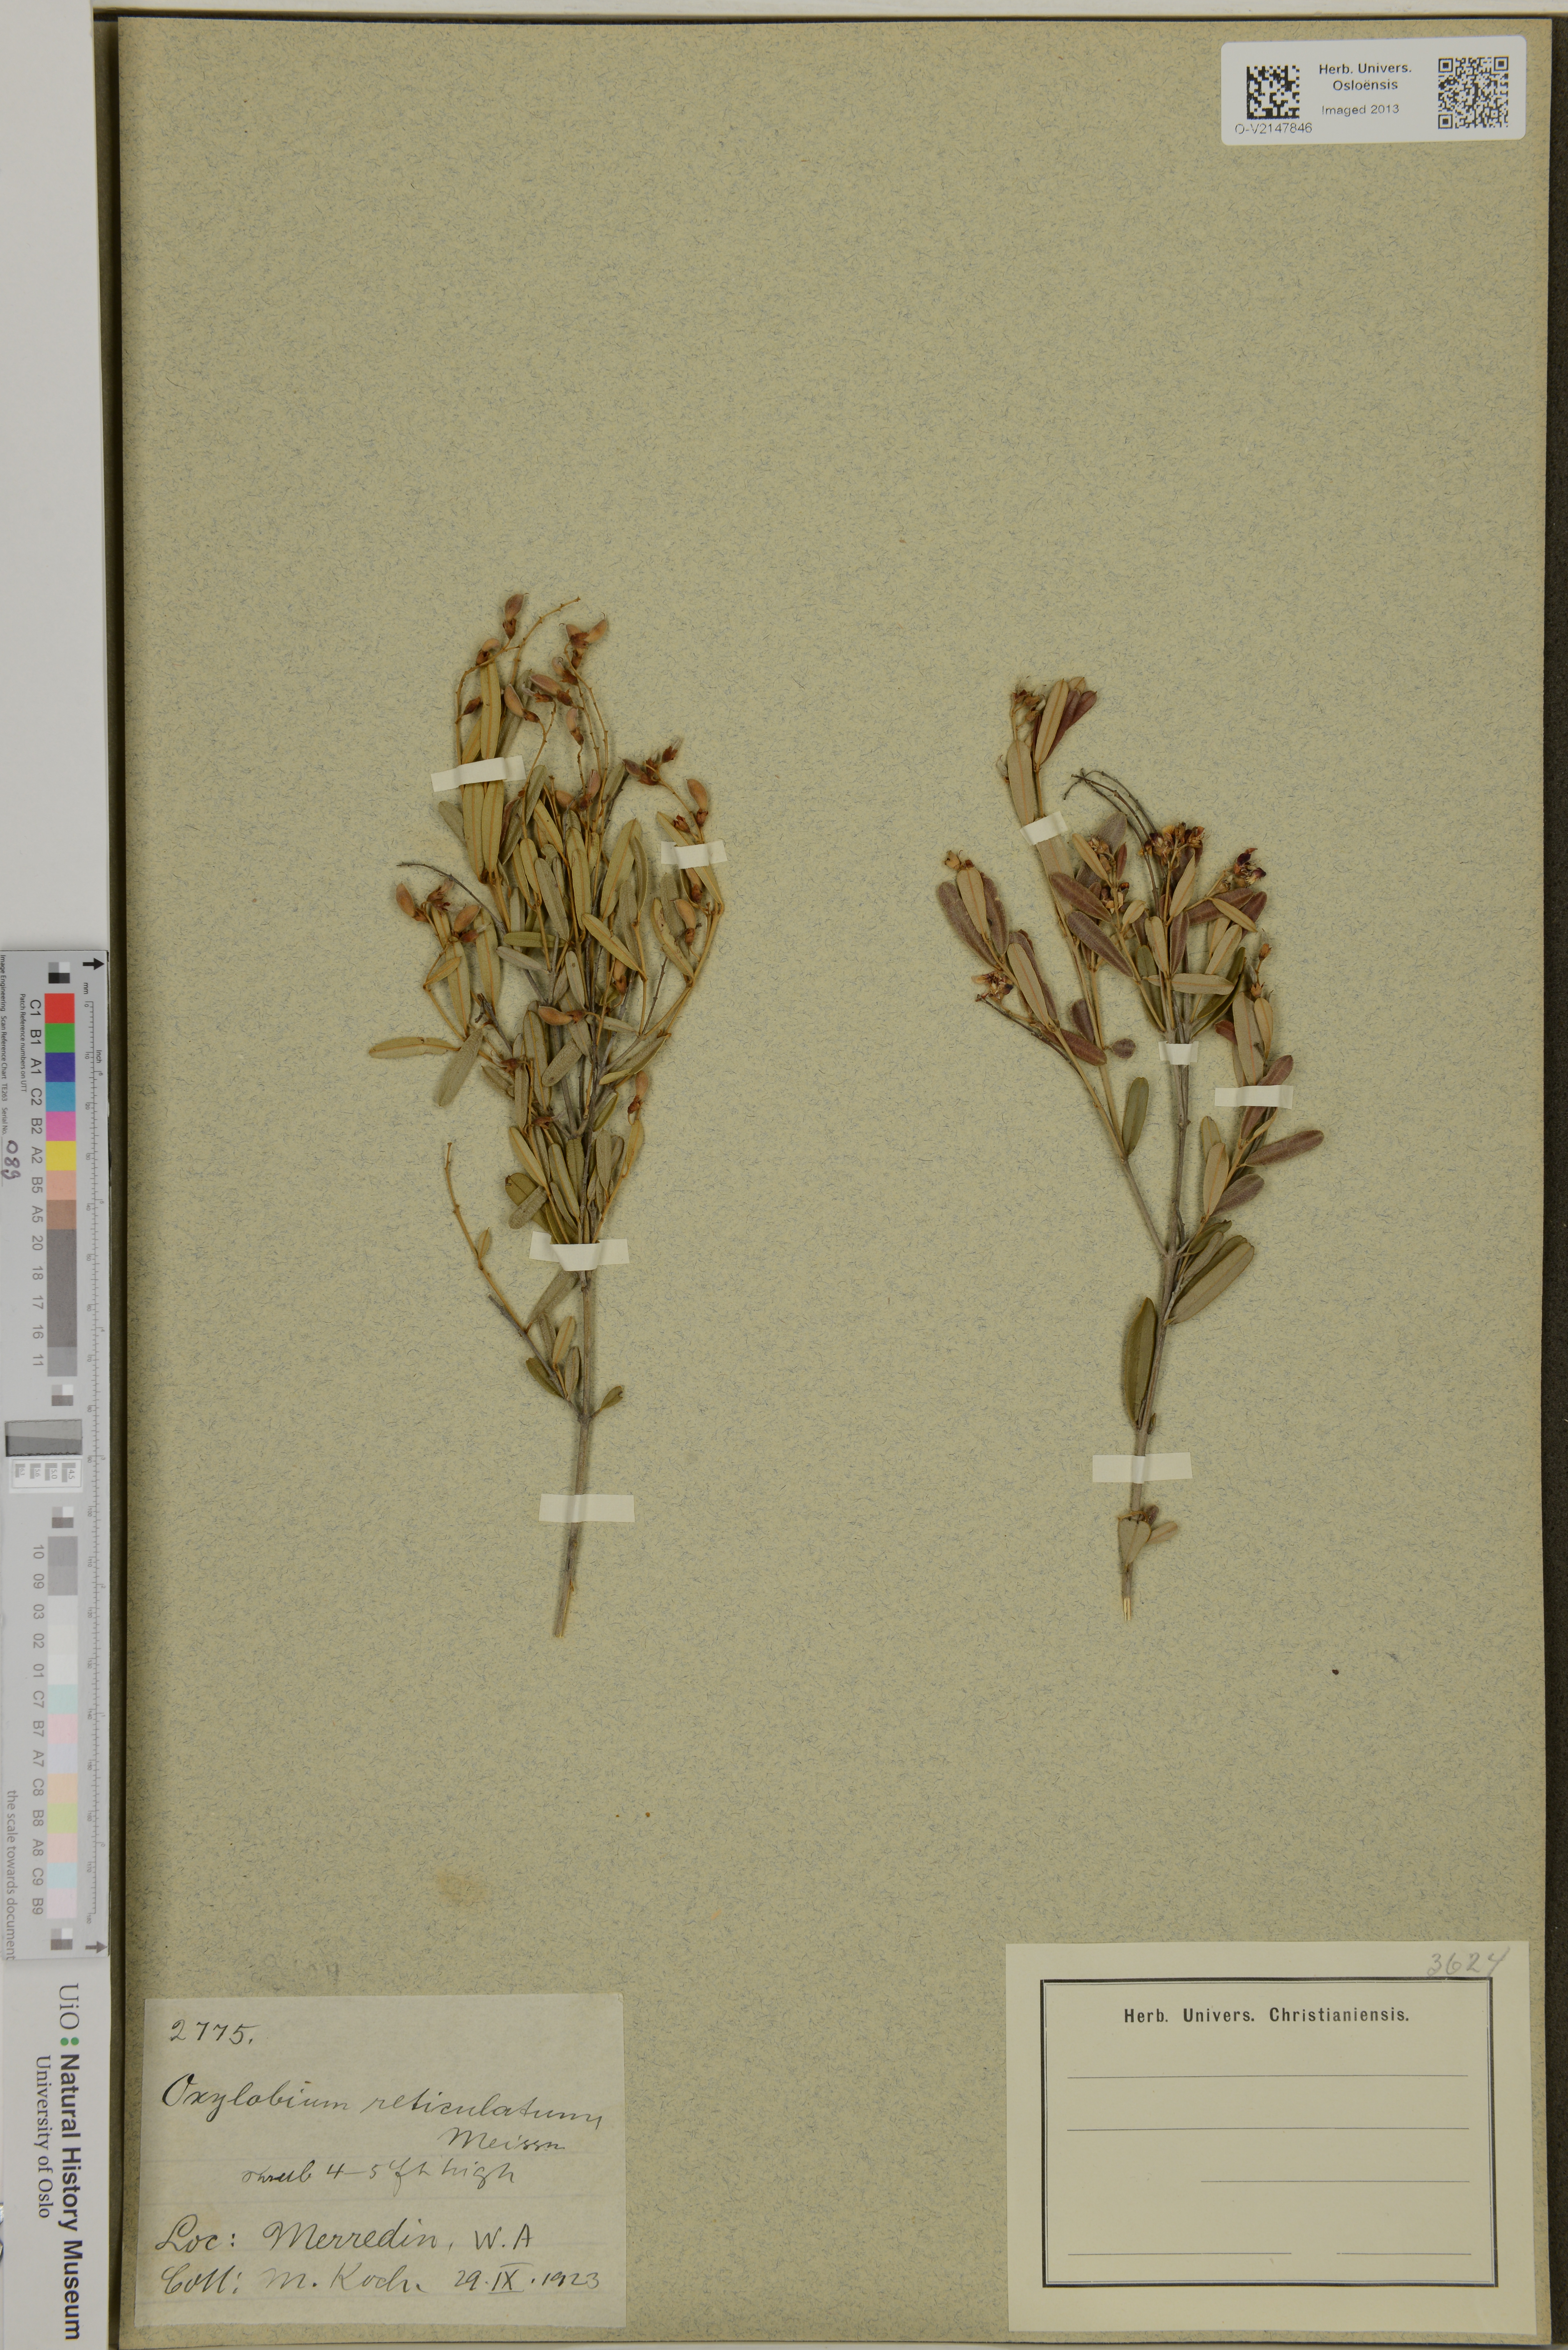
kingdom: Plantae
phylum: Tracheophyta
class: Magnoliopsida
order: Fabales
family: Fabaceae
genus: Gastrolobium
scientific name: Gastrolobium nervosum
